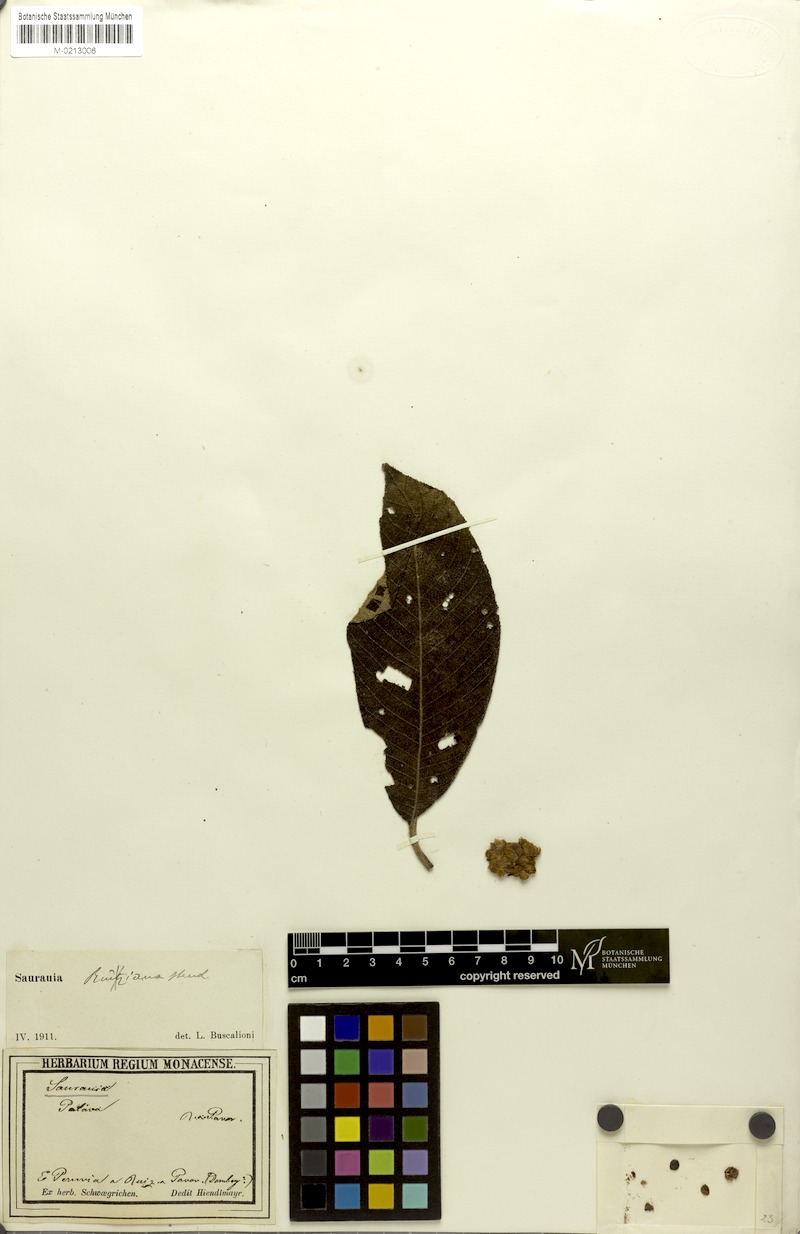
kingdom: Plantae
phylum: Tracheophyta
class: Magnoliopsida
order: Ericales
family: Actinidiaceae
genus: Saurauia
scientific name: Saurauia biserrata
